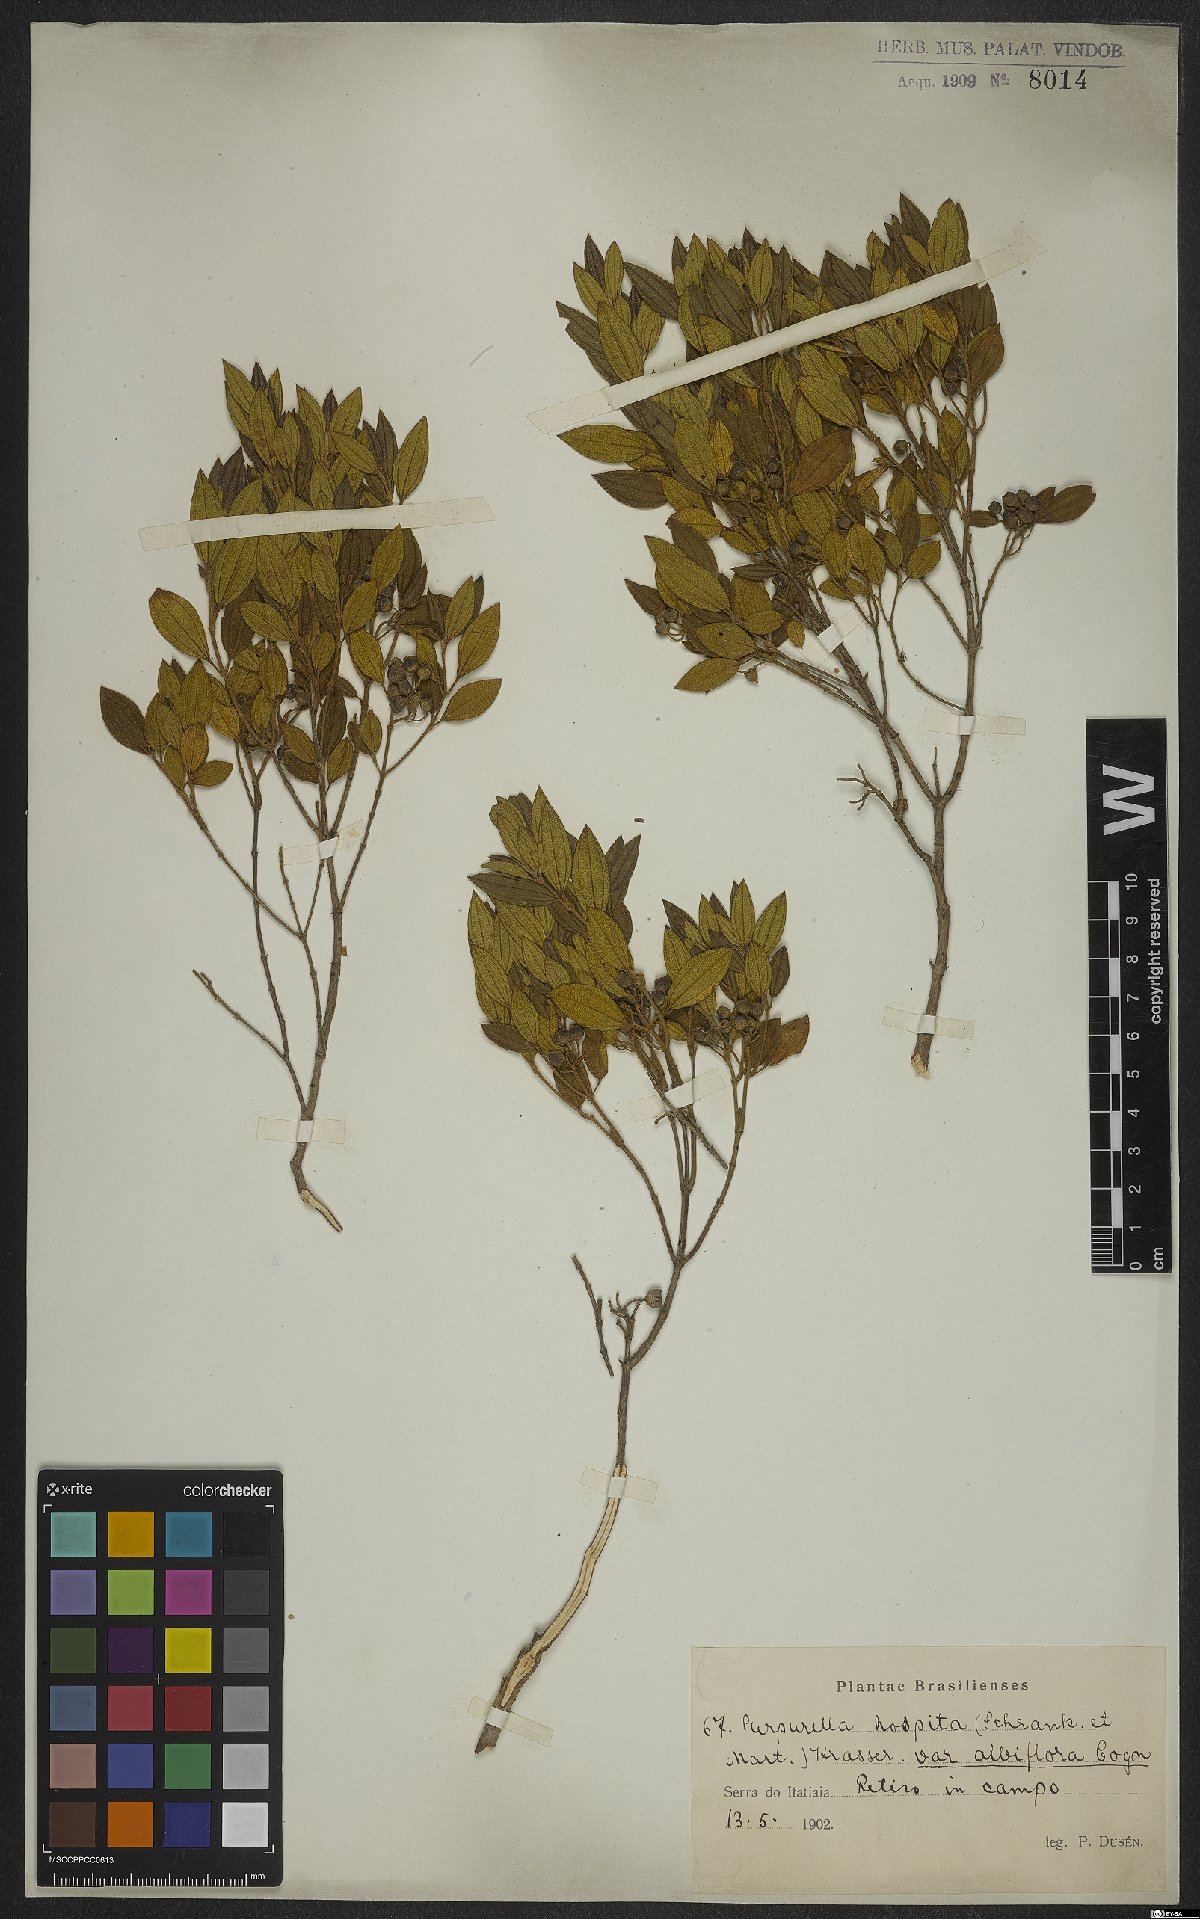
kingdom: Plantae
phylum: Tracheophyta
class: Magnoliopsida
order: Myrtales
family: Melastomataceae
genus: Pleroma
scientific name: Pleroma hospitum
